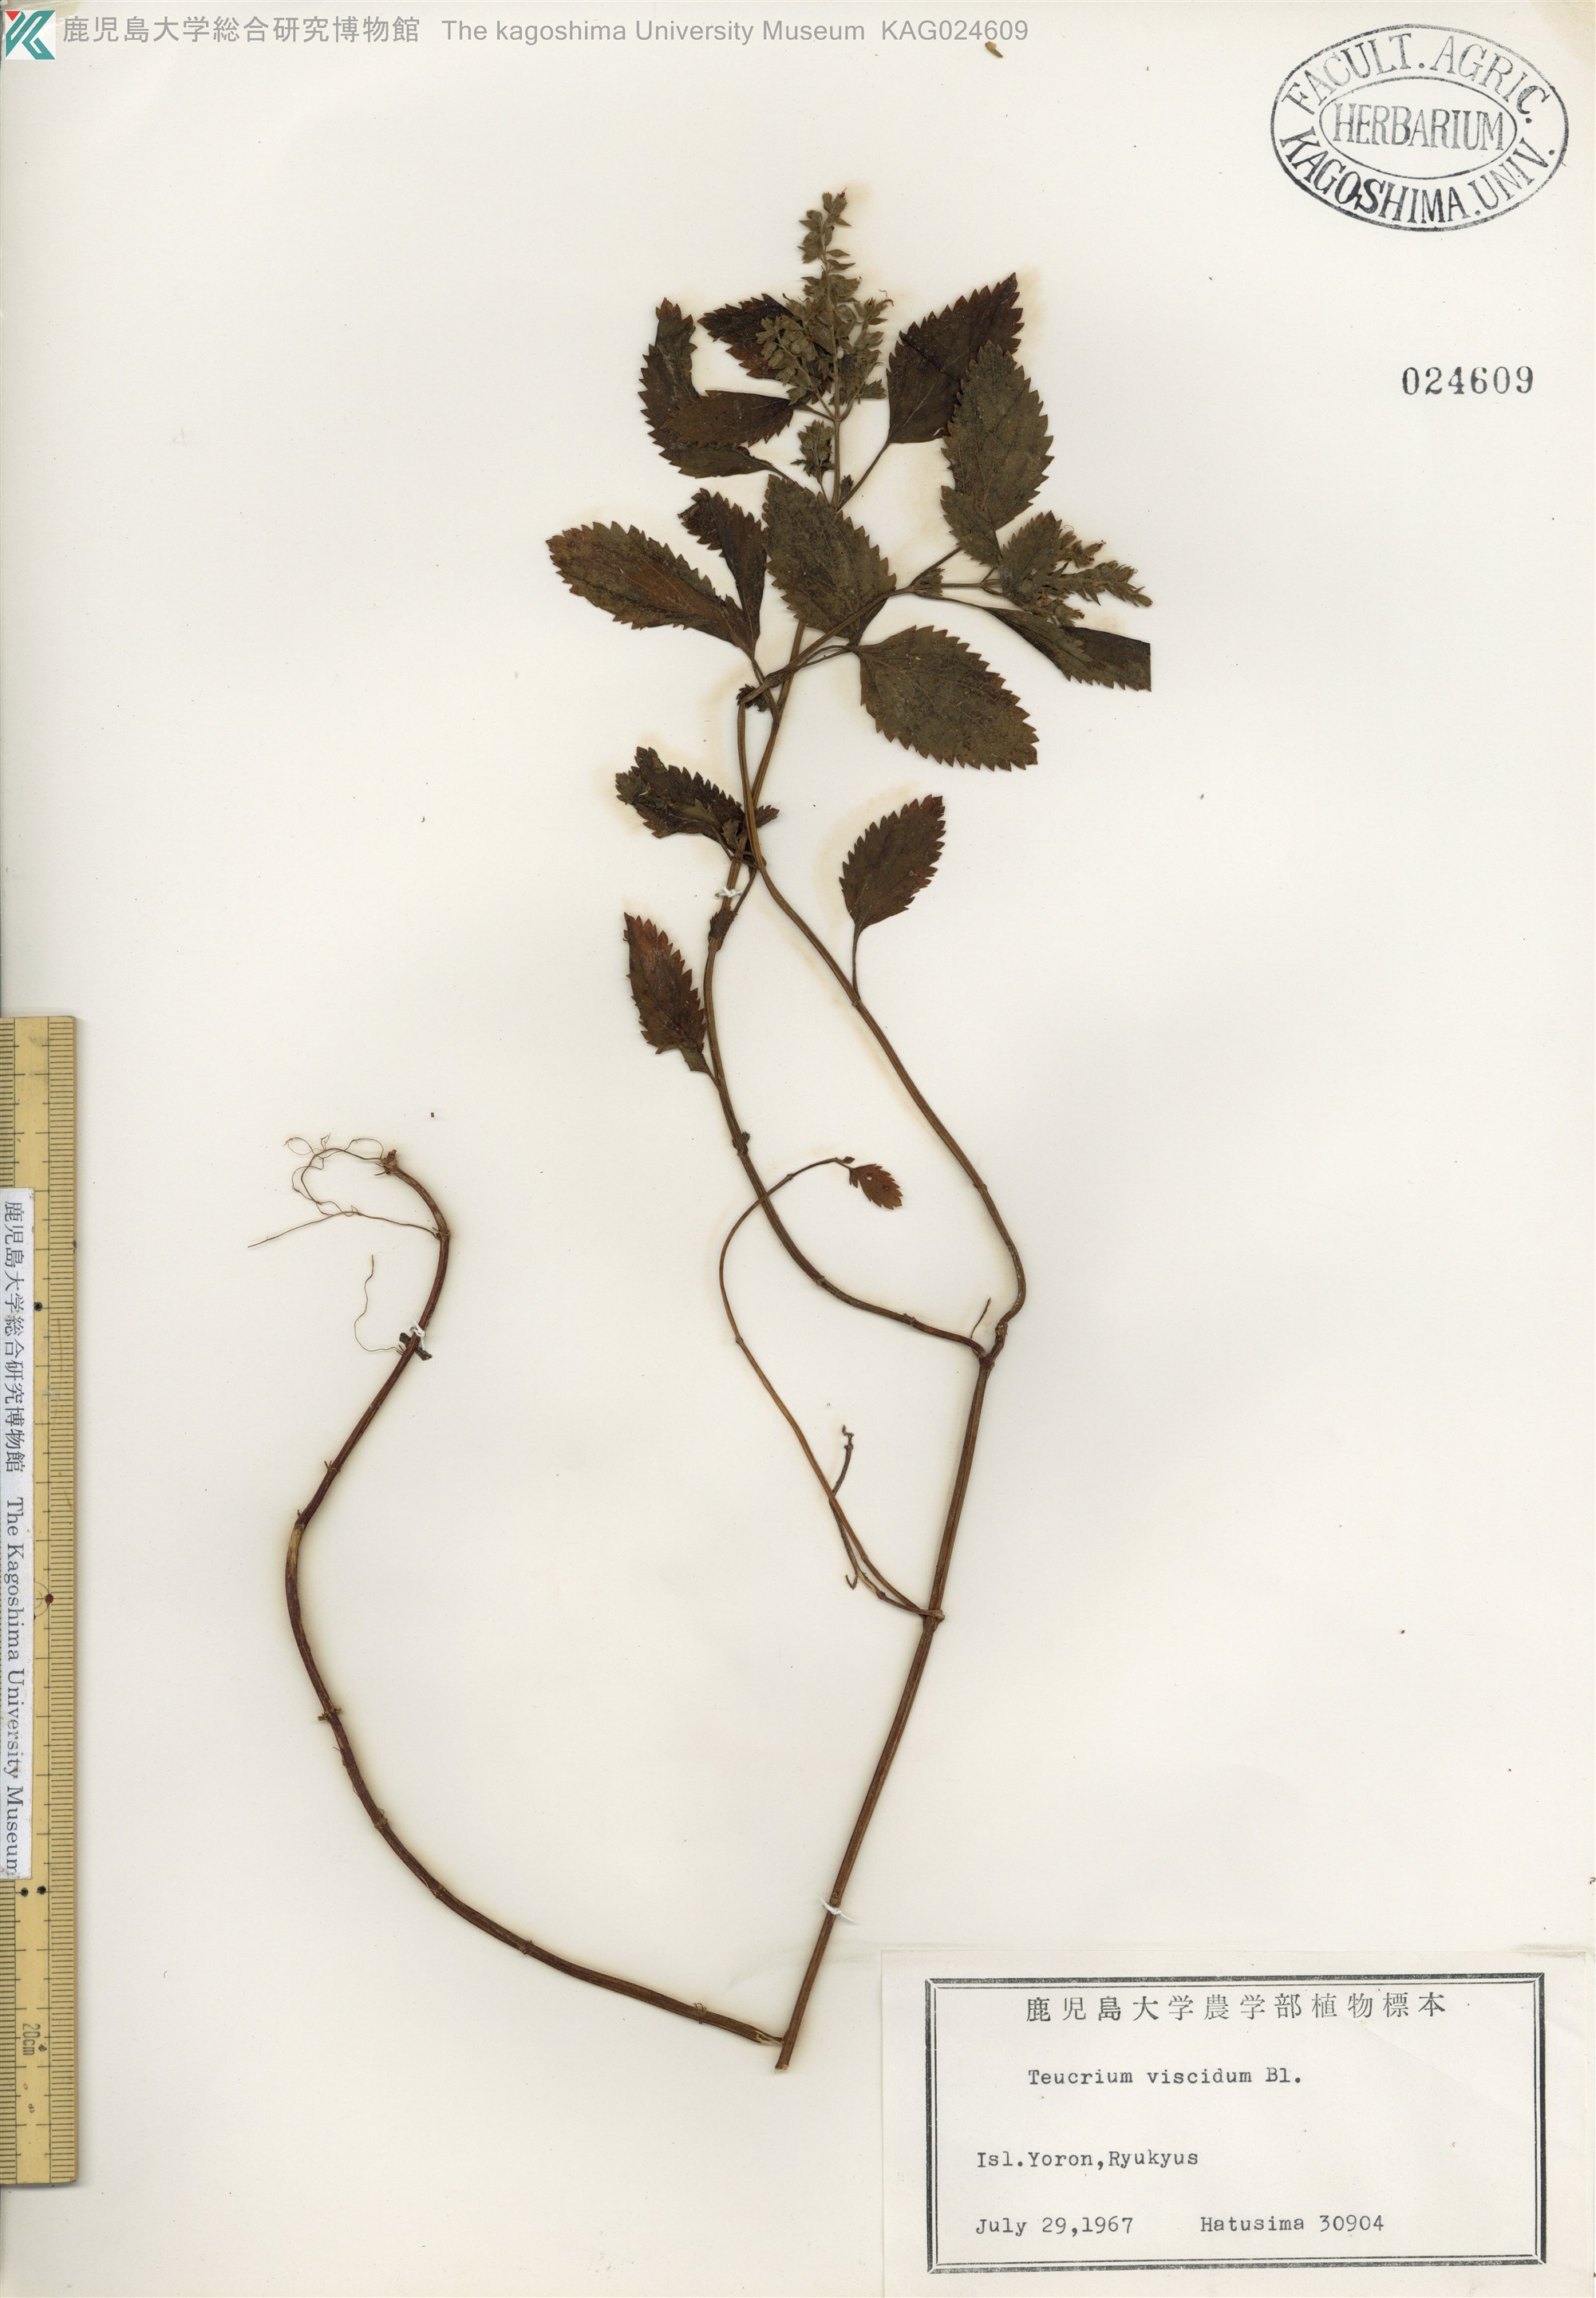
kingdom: Plantae
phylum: Tracheophyta
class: Magnoliopsida
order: Lamiales
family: Lamiaceae
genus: Teucrium
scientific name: Teucrium viscidum
